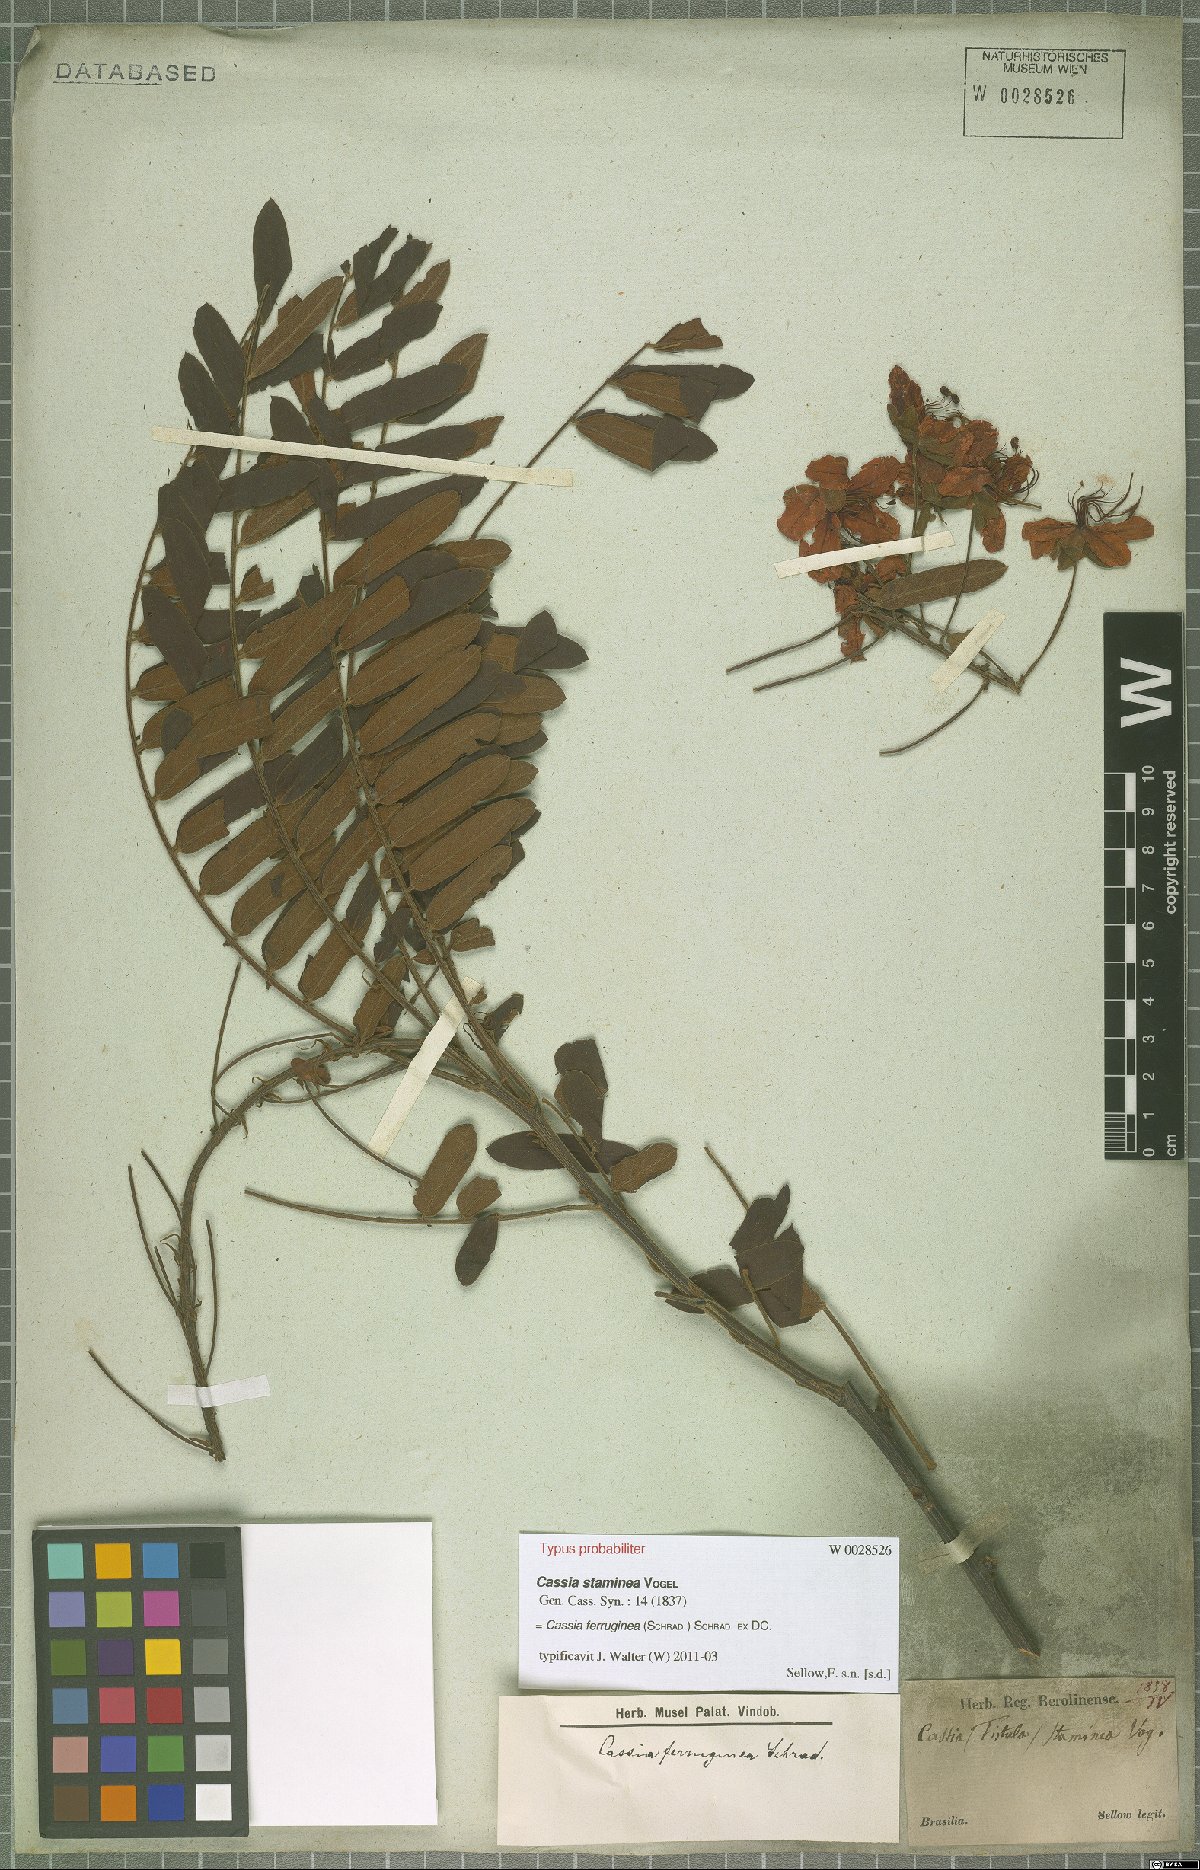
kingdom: Plantae
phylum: Tracheophyta
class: Magnoliopsida
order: Fabales
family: Fabaceae
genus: Cassia
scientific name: Cassia ferruginea
